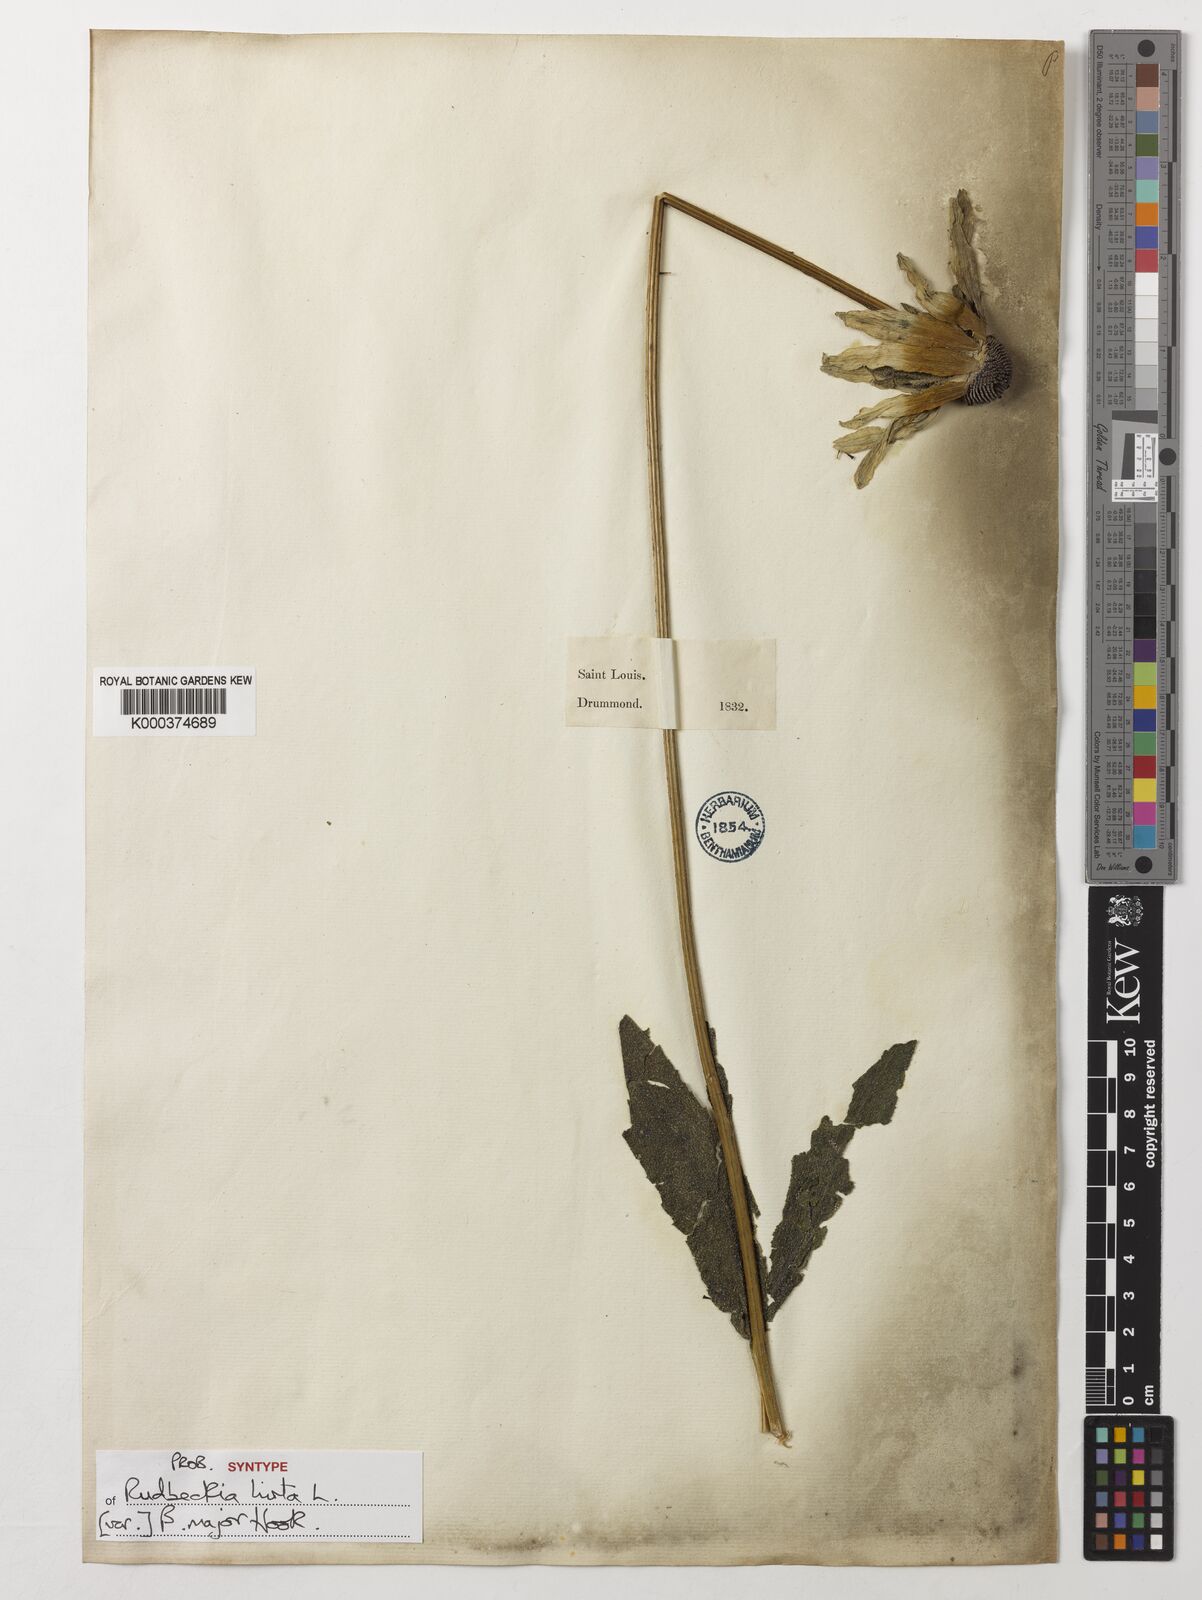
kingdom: Plantae
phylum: Tracheophyta
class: Magnoliopsida
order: Asterales
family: Asteraceae
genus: Rudbeckia
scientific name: Rudbeckia hirta
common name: Black-eyed-susan
